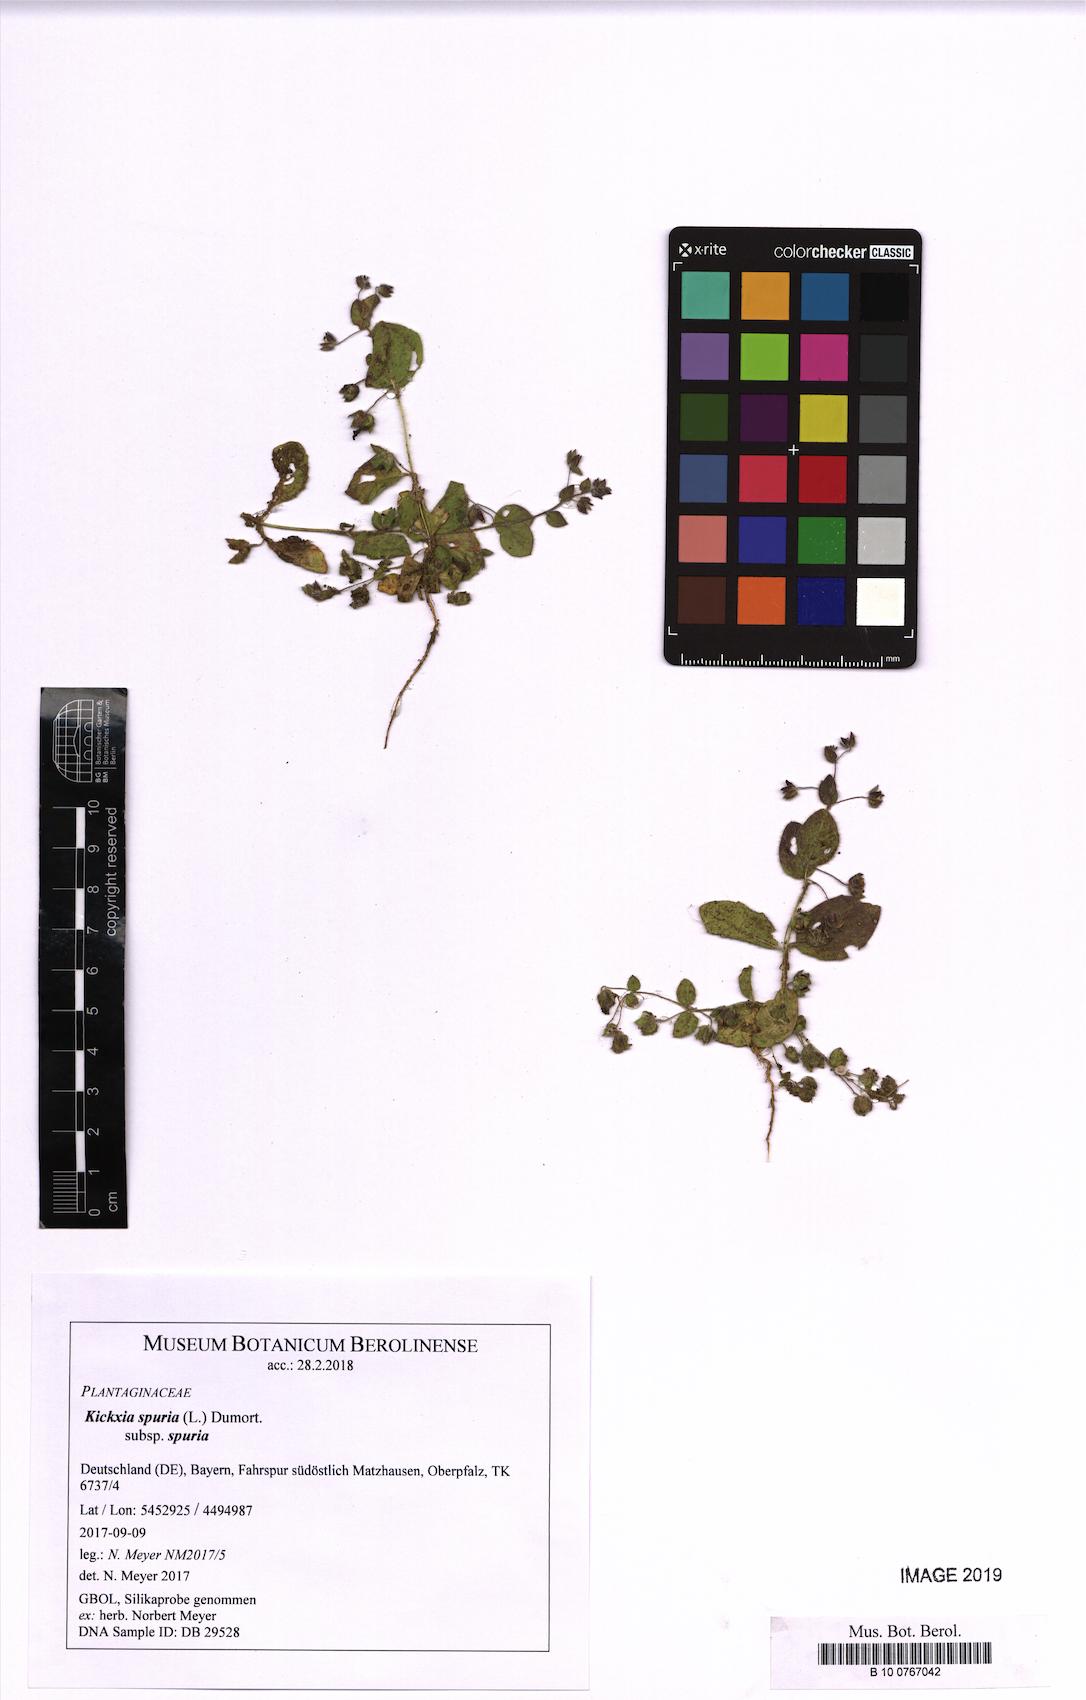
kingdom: Plantae
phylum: Tracheophyta
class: Magnoliopsida
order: Lamiales
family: Plantaginaceae
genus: Kickxia
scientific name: Kickxia spuria
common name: Round-leaved fluellen
